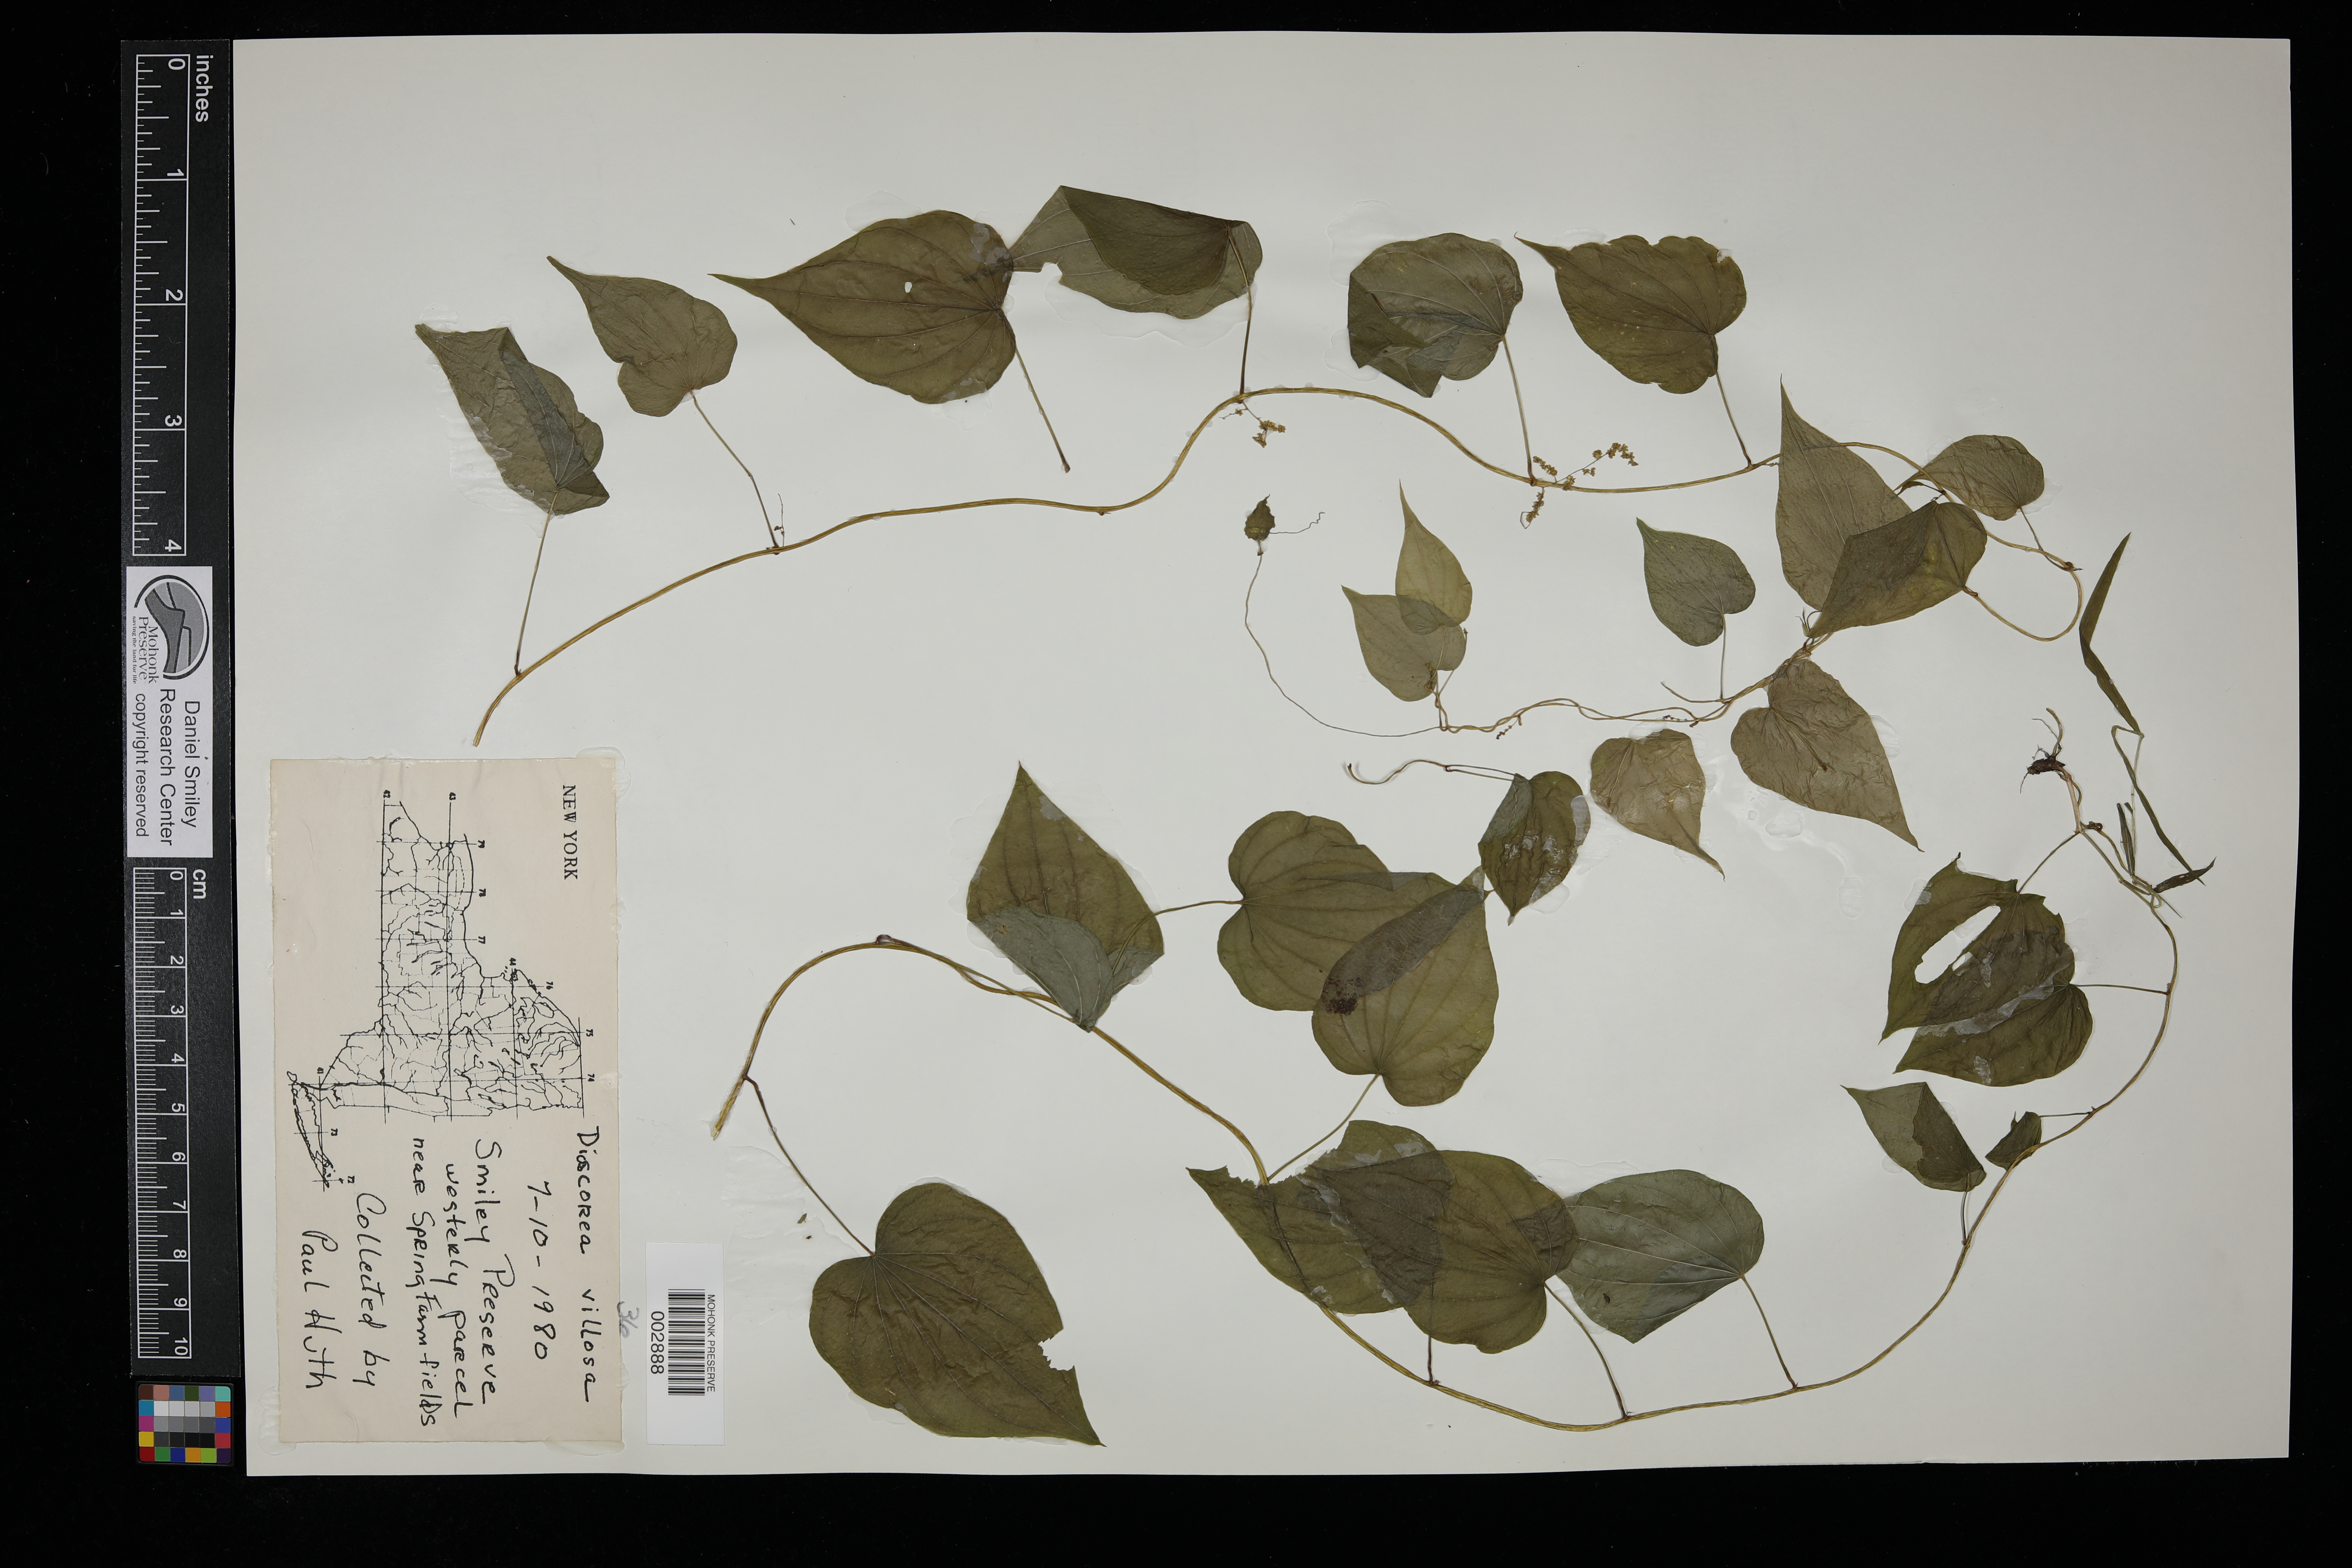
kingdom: Plantae
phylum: Tracheophyta
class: Liliopsida
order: Dioscoreales
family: Dioscoreaceae
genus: Dioscorea
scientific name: Dioscorea villosa
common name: Wild yam
